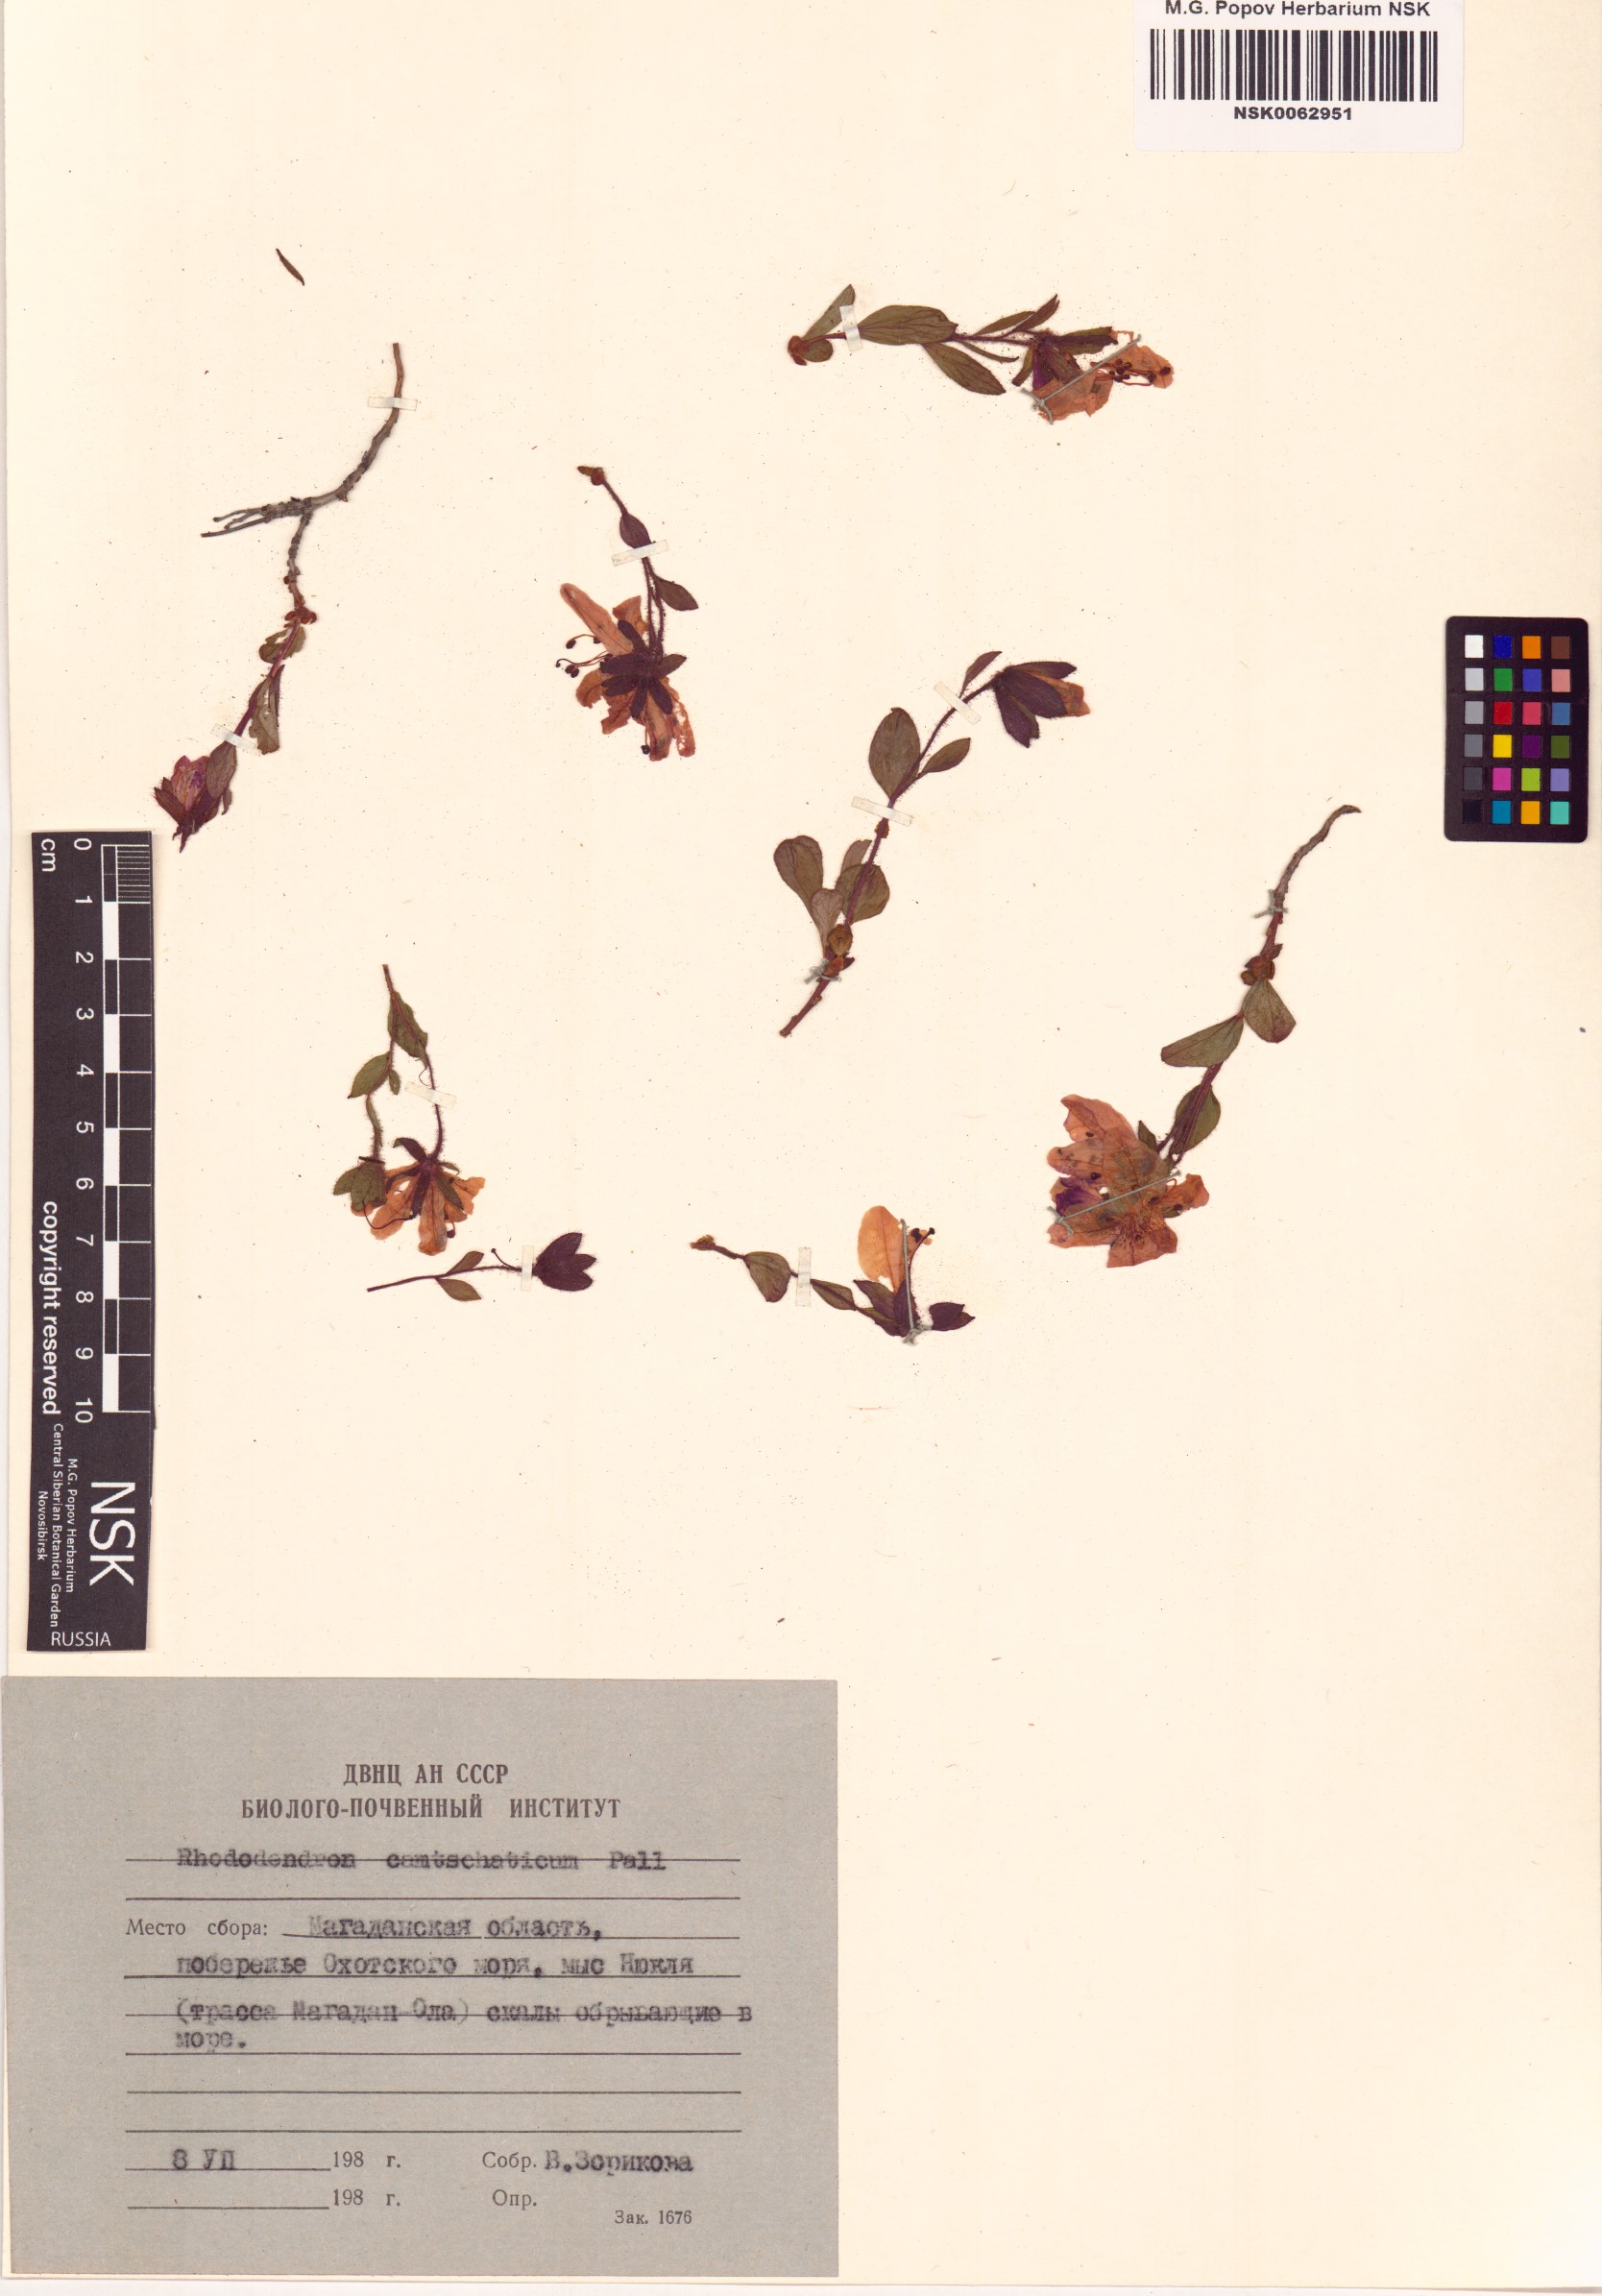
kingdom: Plantae
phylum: Tracheophyta
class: Magnoliopsida
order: Ericales
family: Ericaceae
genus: Rhododendron
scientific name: Rhododendron camtschaticum
